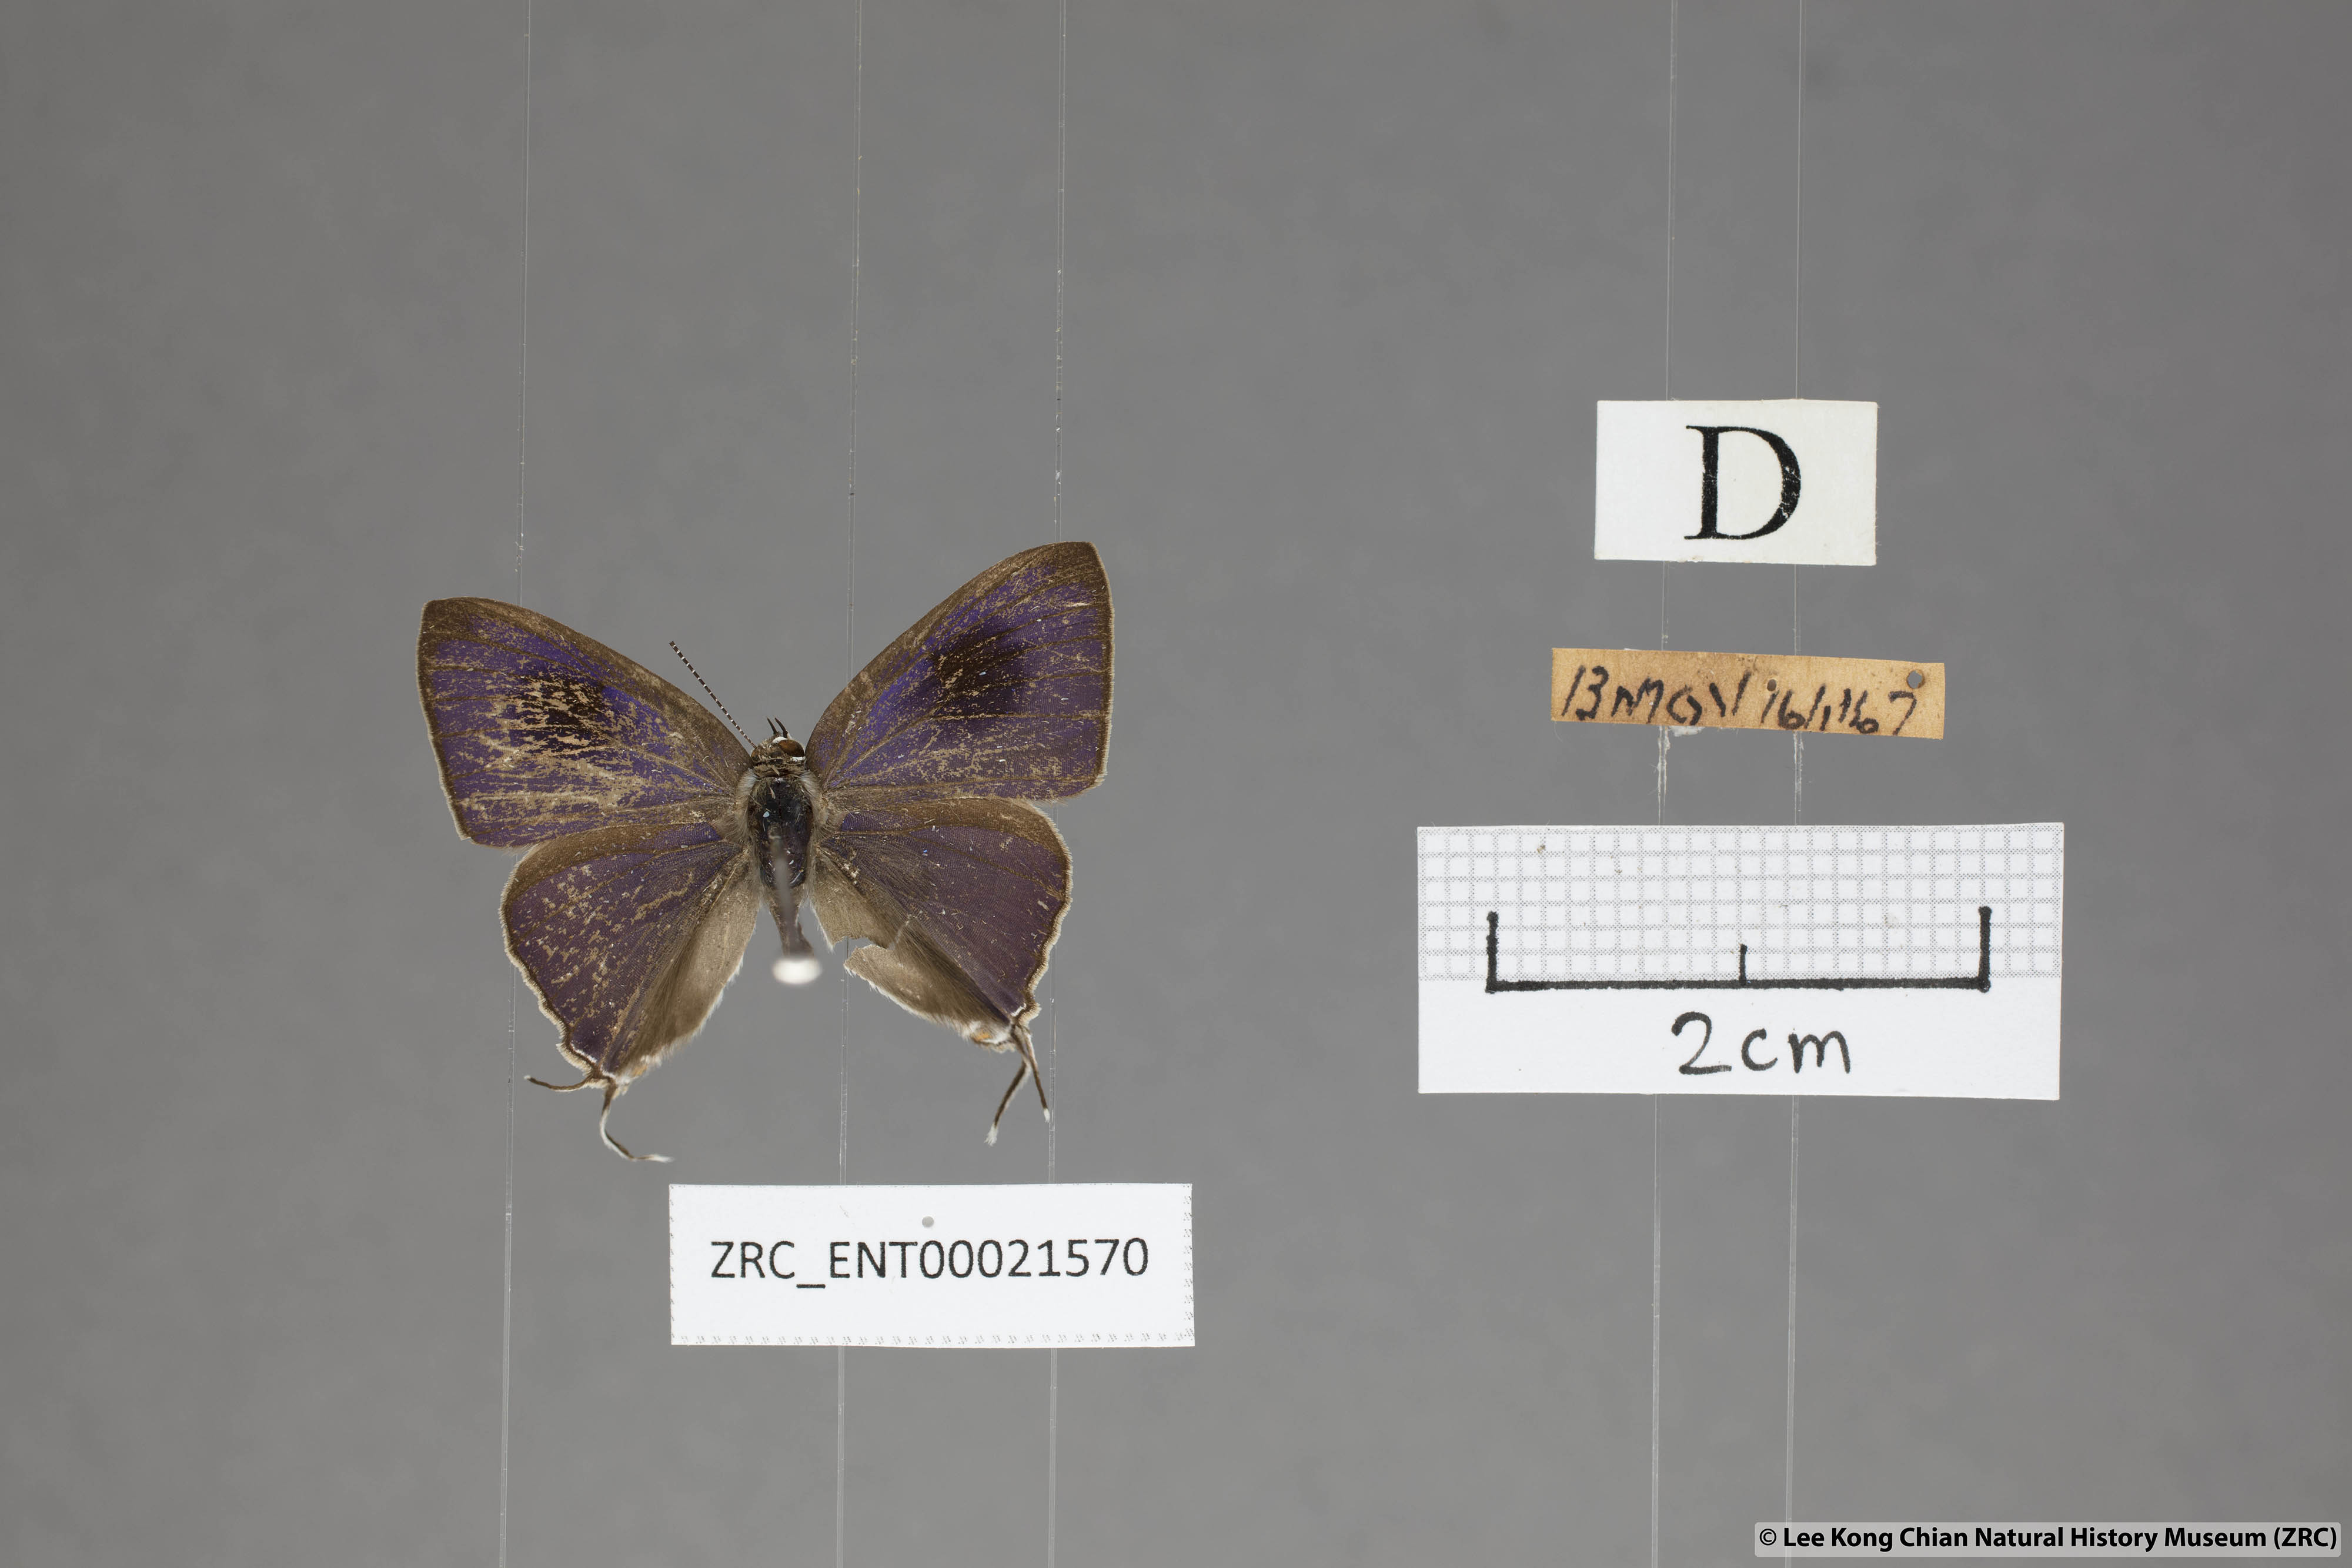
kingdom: Animalia
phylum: Arthropoda
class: Insecta
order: Lepidoptera
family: Lycaenidae
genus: Hypolycaena
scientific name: Hypolycaena erylus
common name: Common tit
